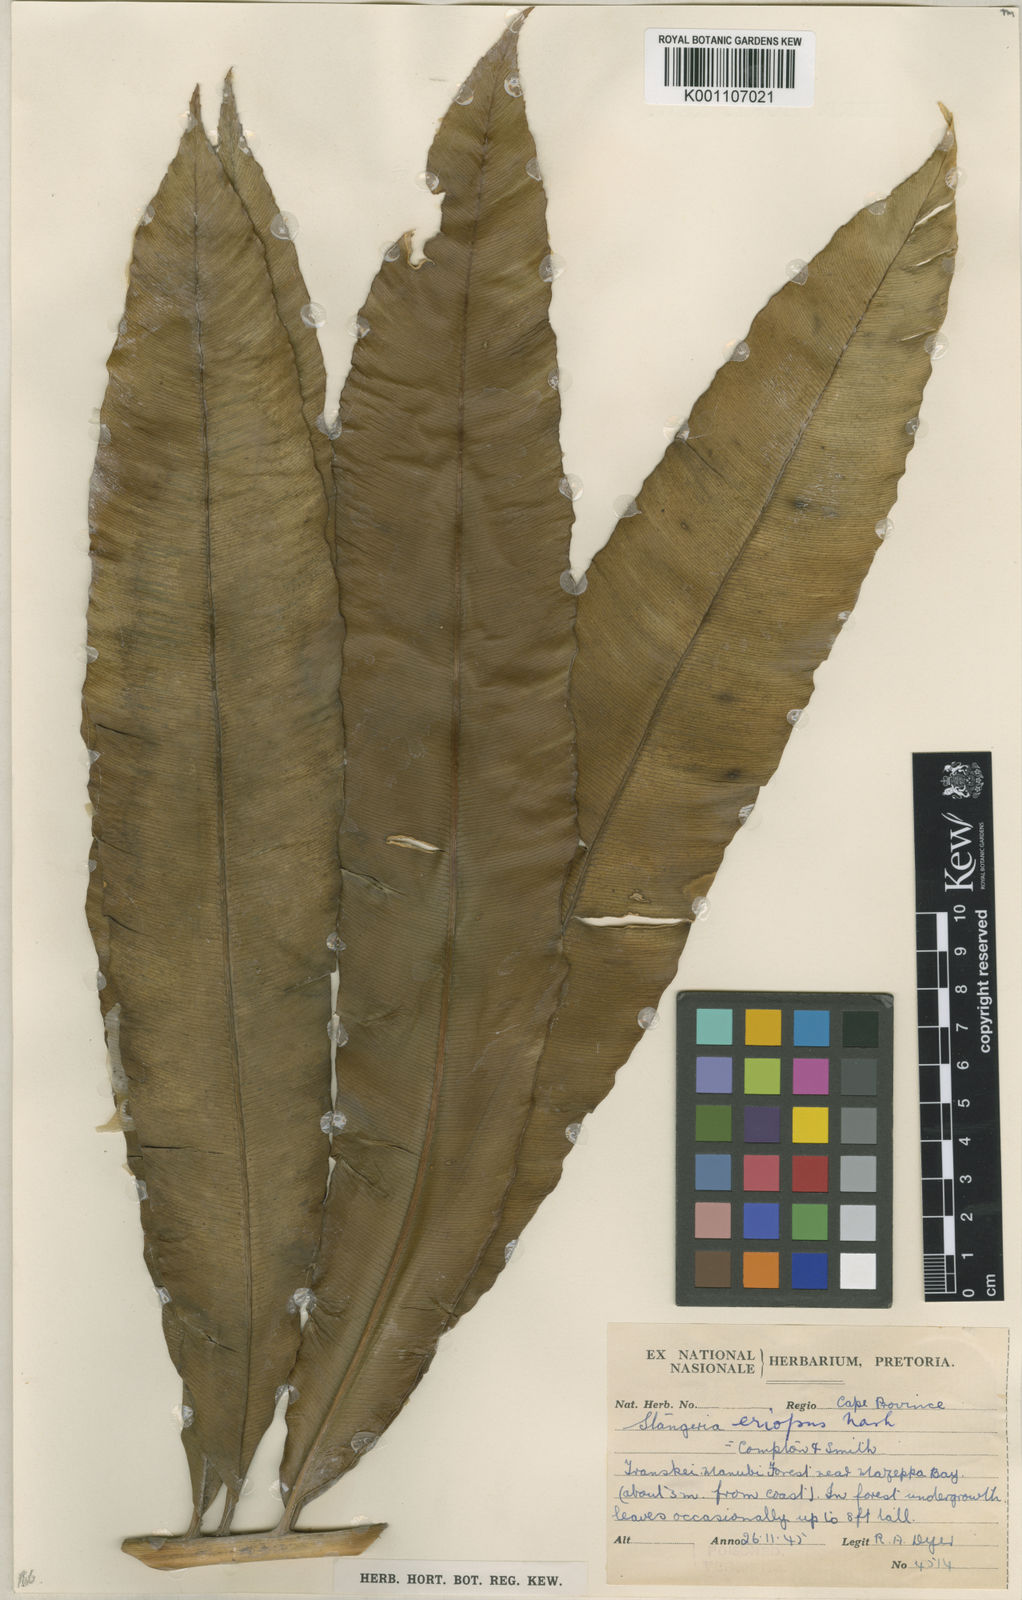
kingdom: Plantae
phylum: Tracheophyta
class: Cycadopsida
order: Cycadales
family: Zamiaceae
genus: Stangeria
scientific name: Stangeria
